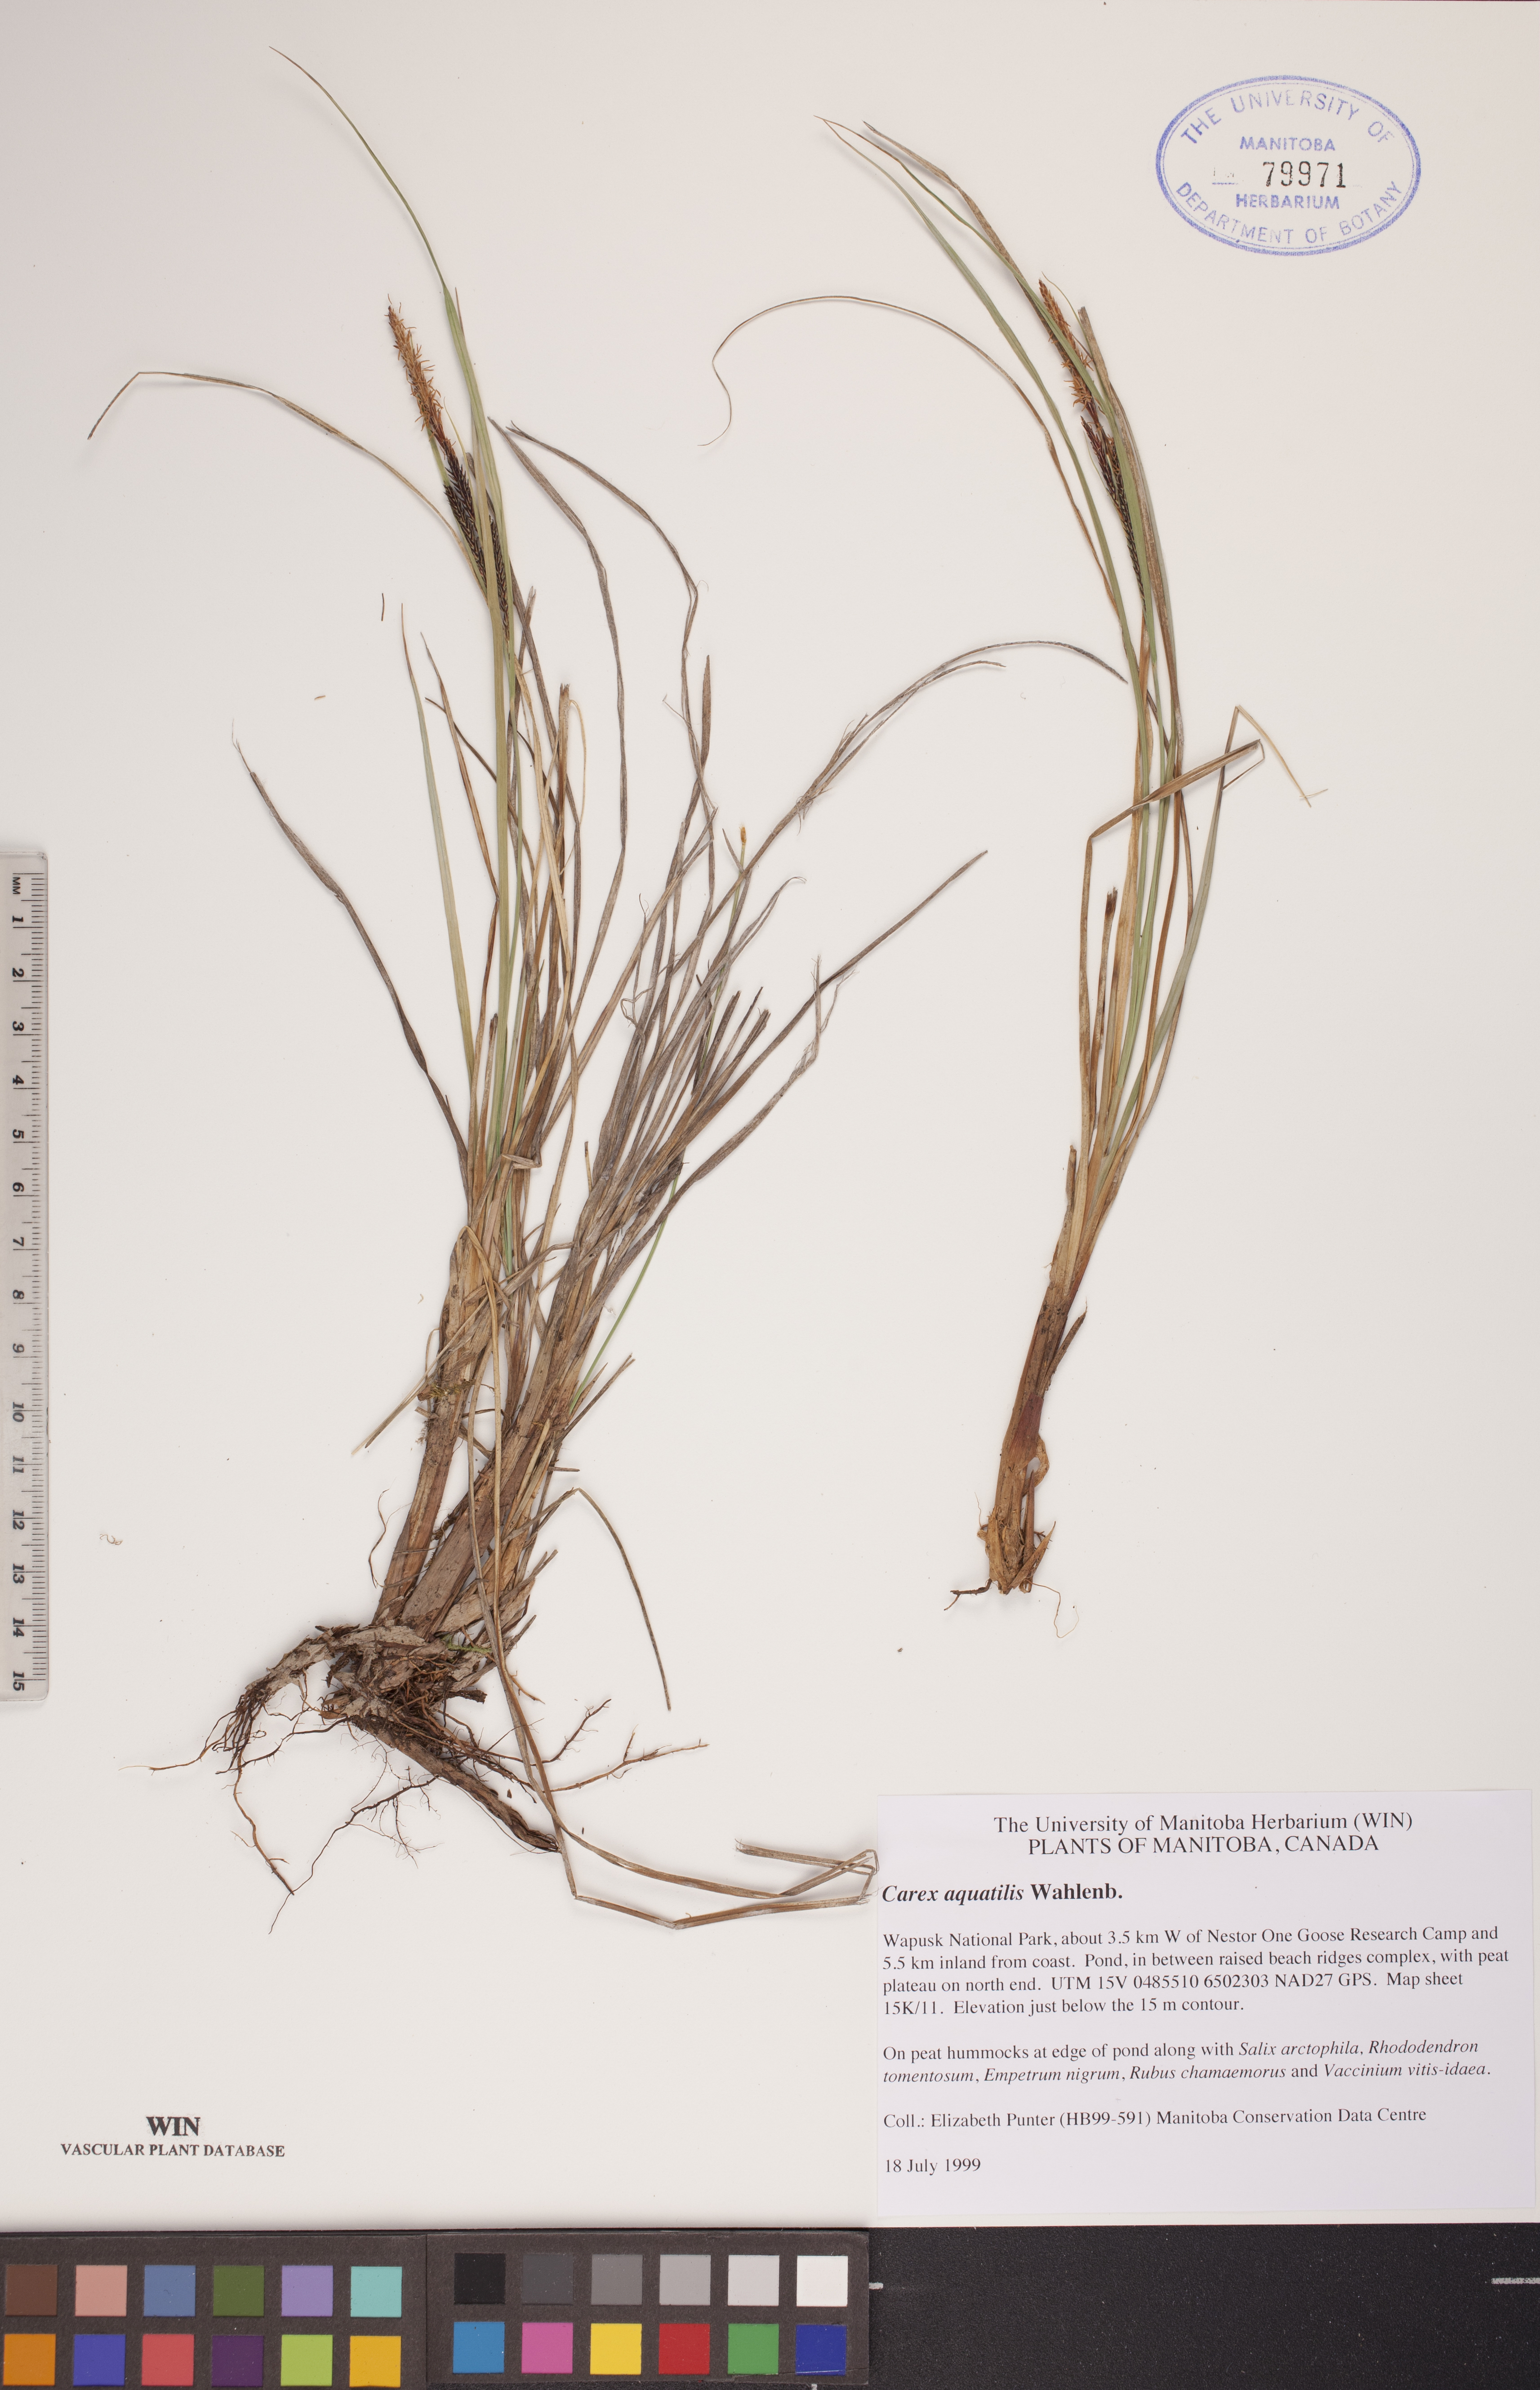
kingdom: Plantae
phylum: Tracheophyta
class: Liliopsida
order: Poales
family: Cyperaceae
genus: Carex
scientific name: Carex aquatilis
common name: Water sedge
